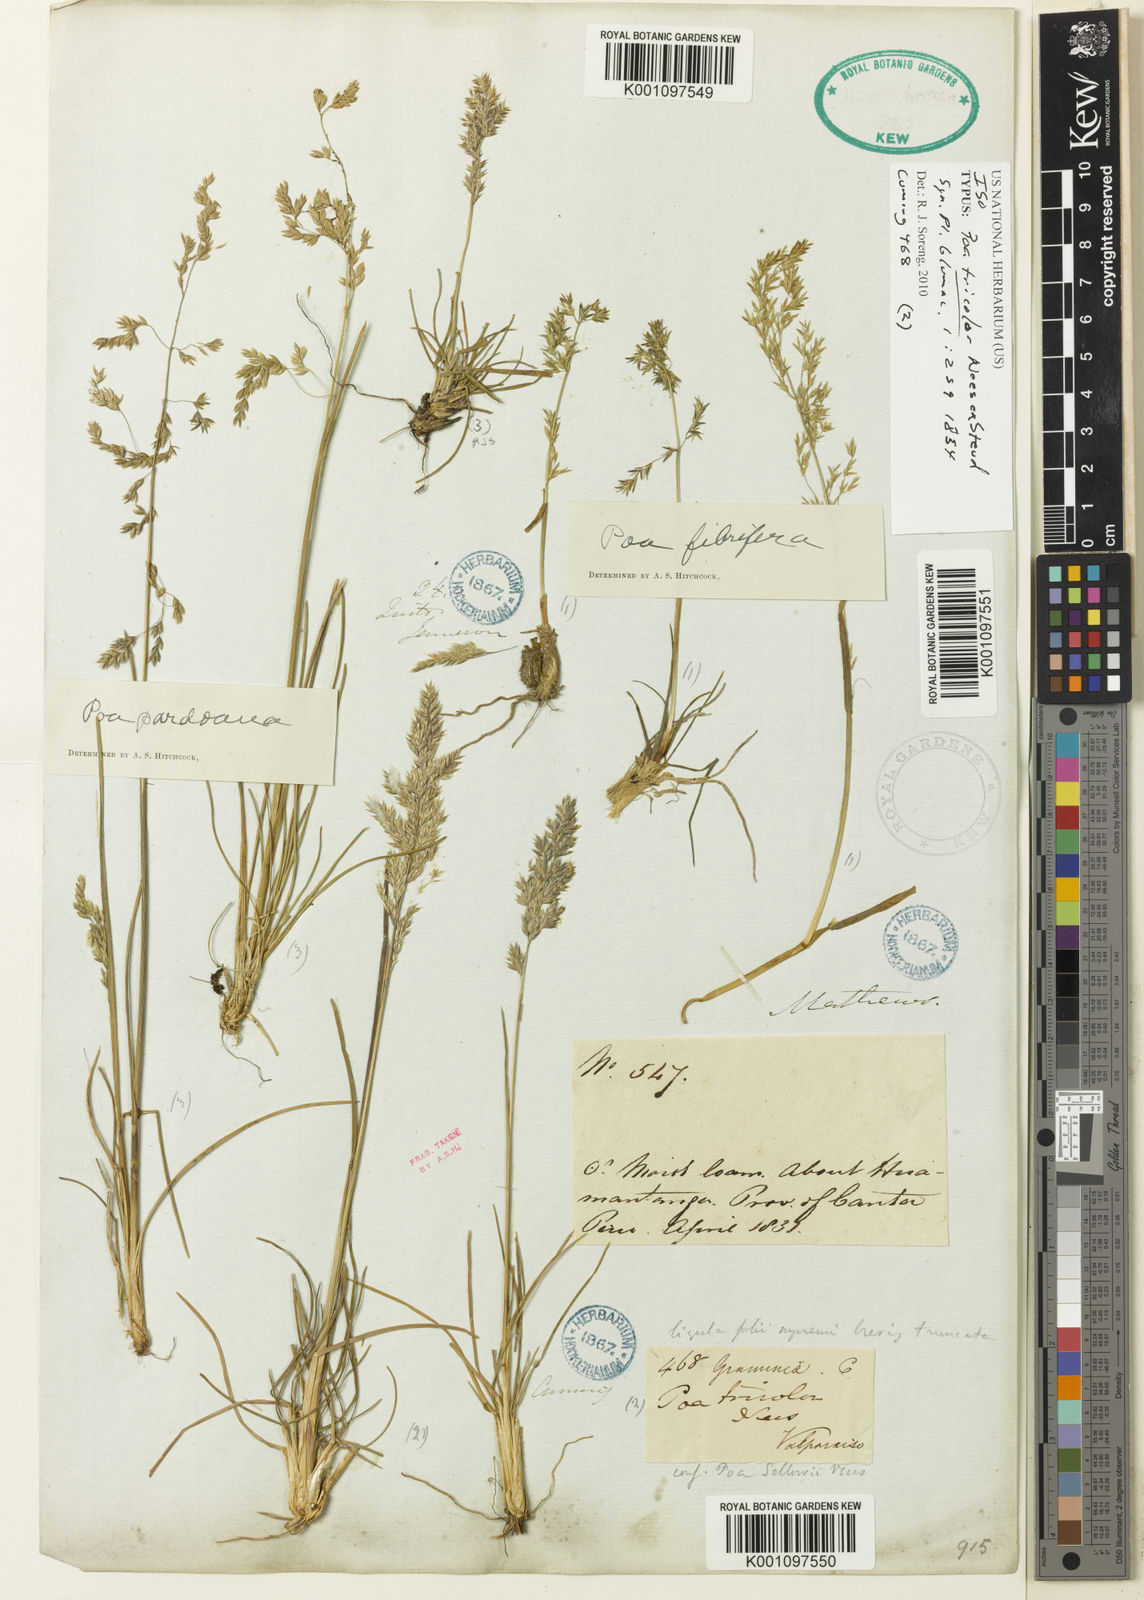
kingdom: Plantae
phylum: Tracheophyta
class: Liliopsida
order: Poales
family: Poaceae
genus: Poa
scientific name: Poa tricolor
